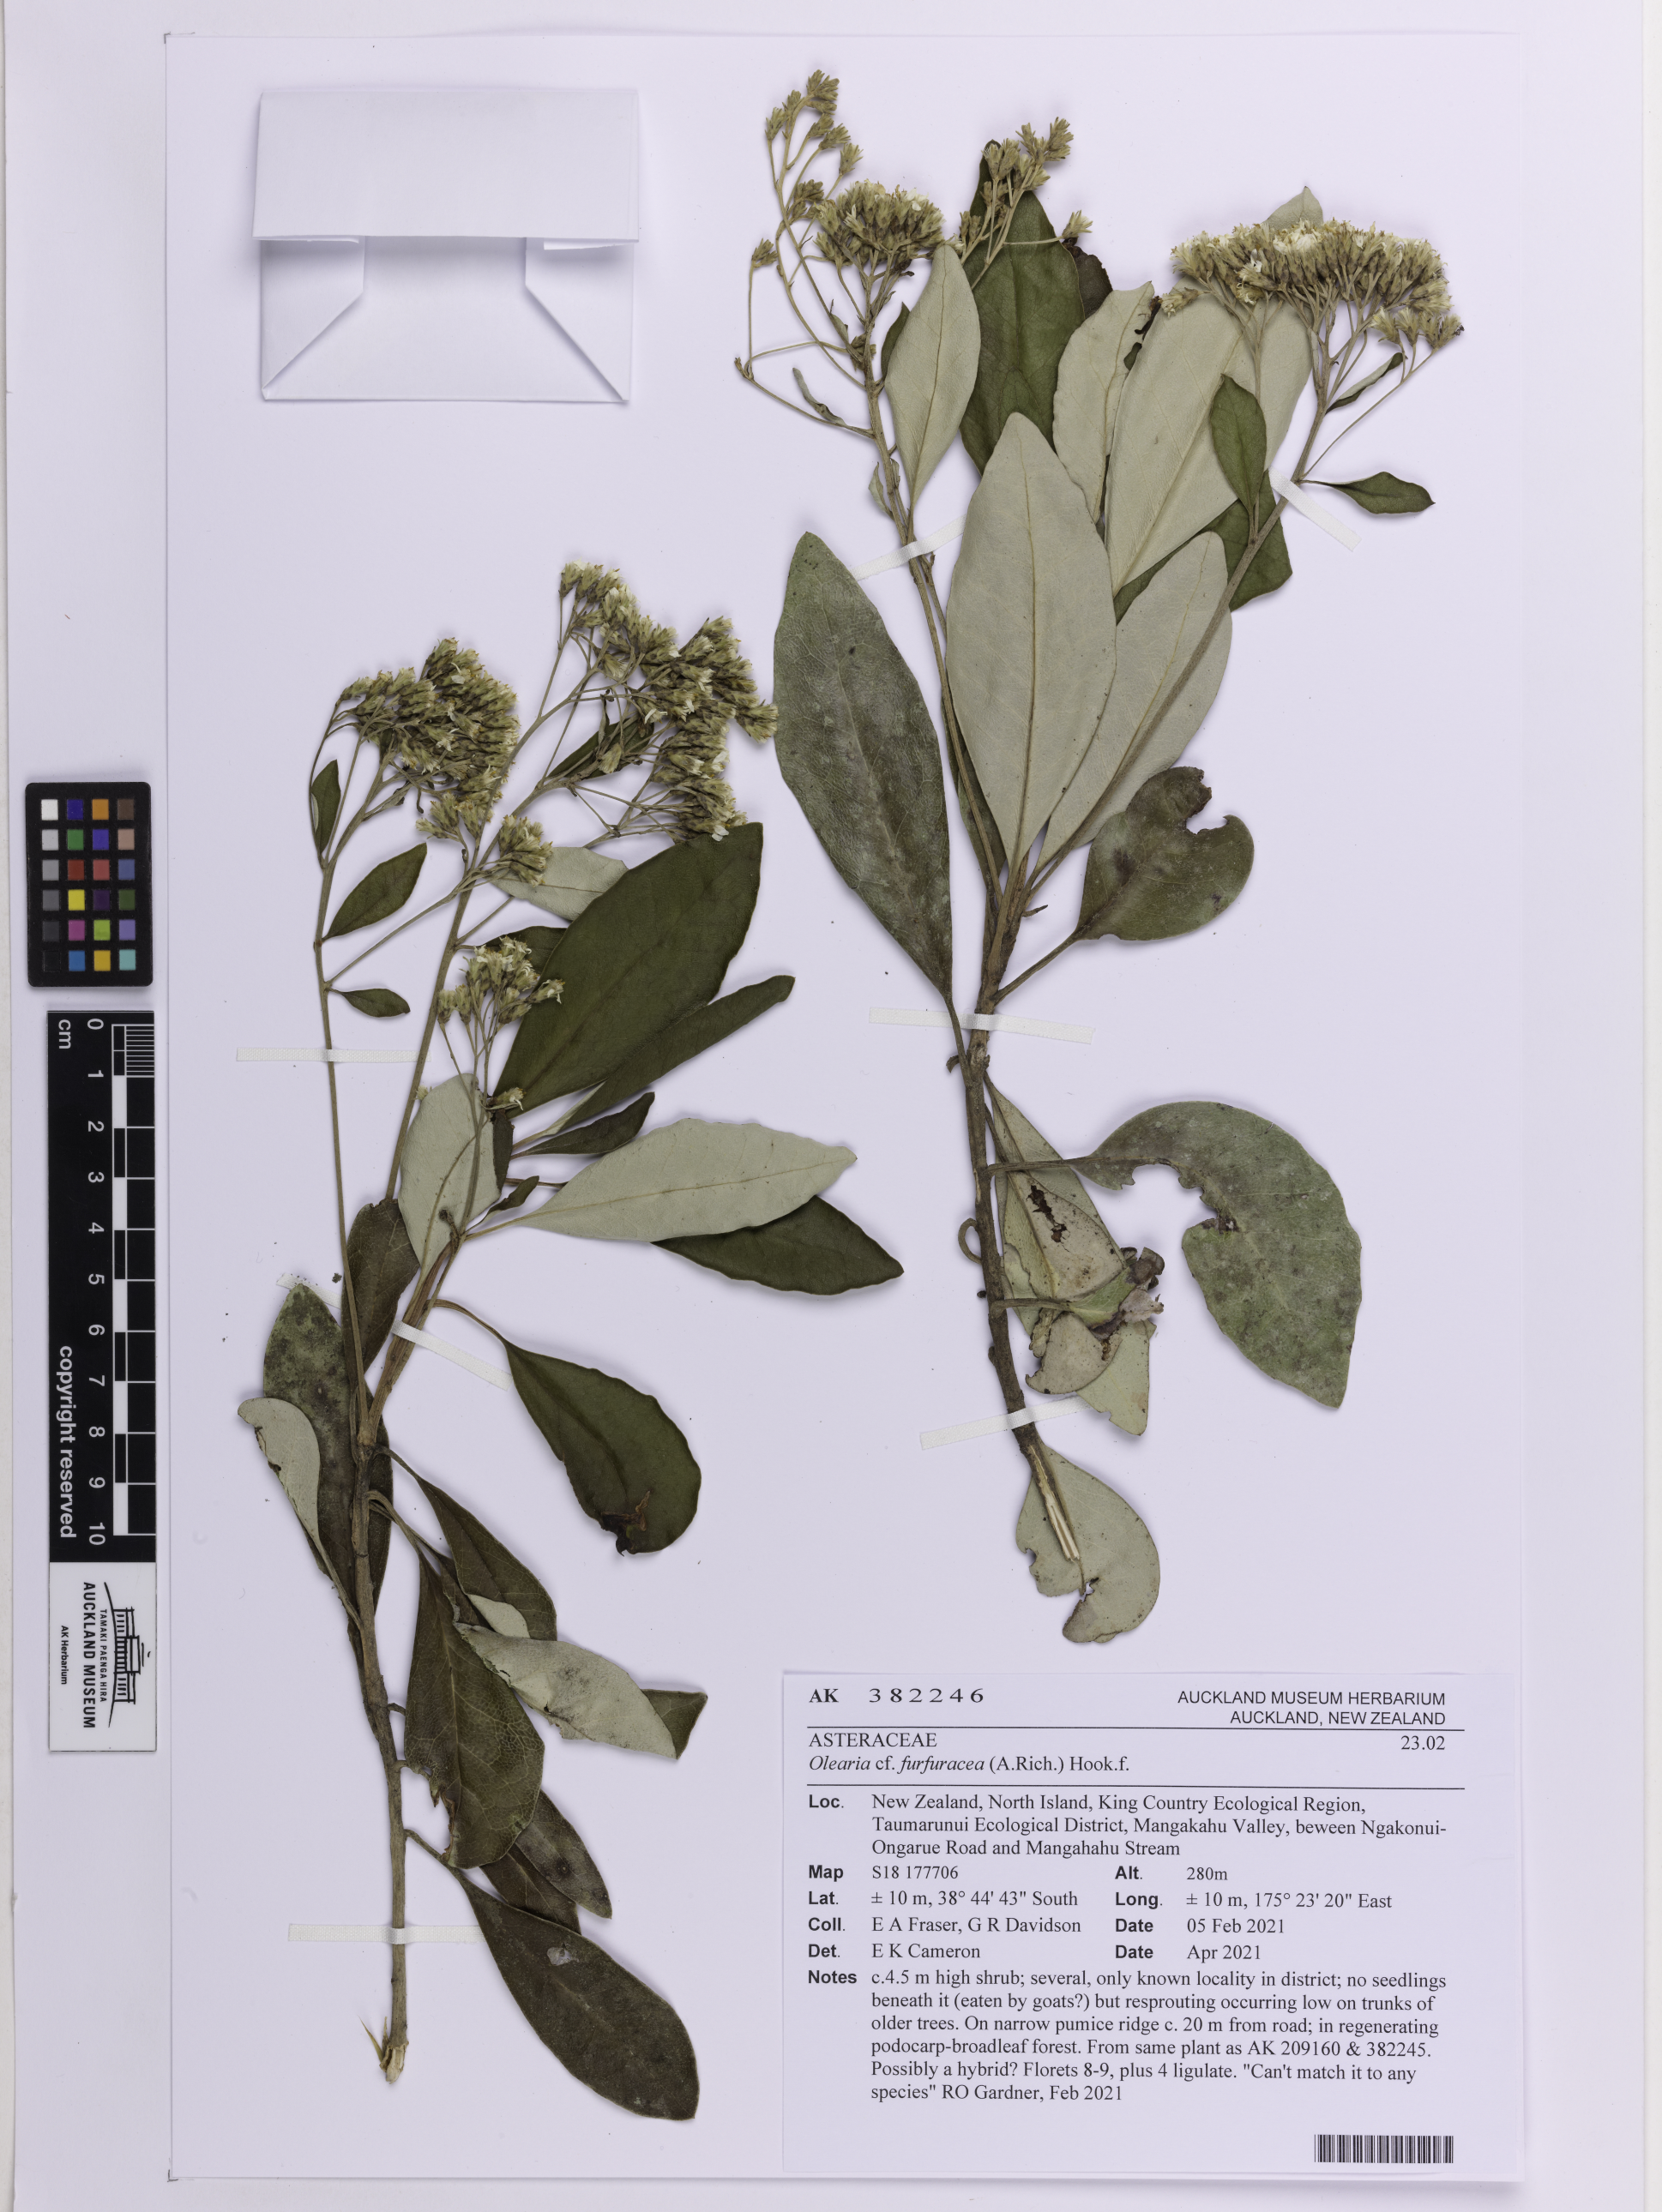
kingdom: Plantae
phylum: Tracheophyta
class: Magnoliopsida
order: Asterales
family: Asteraceae
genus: Olearia
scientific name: Olearia furfuracea
